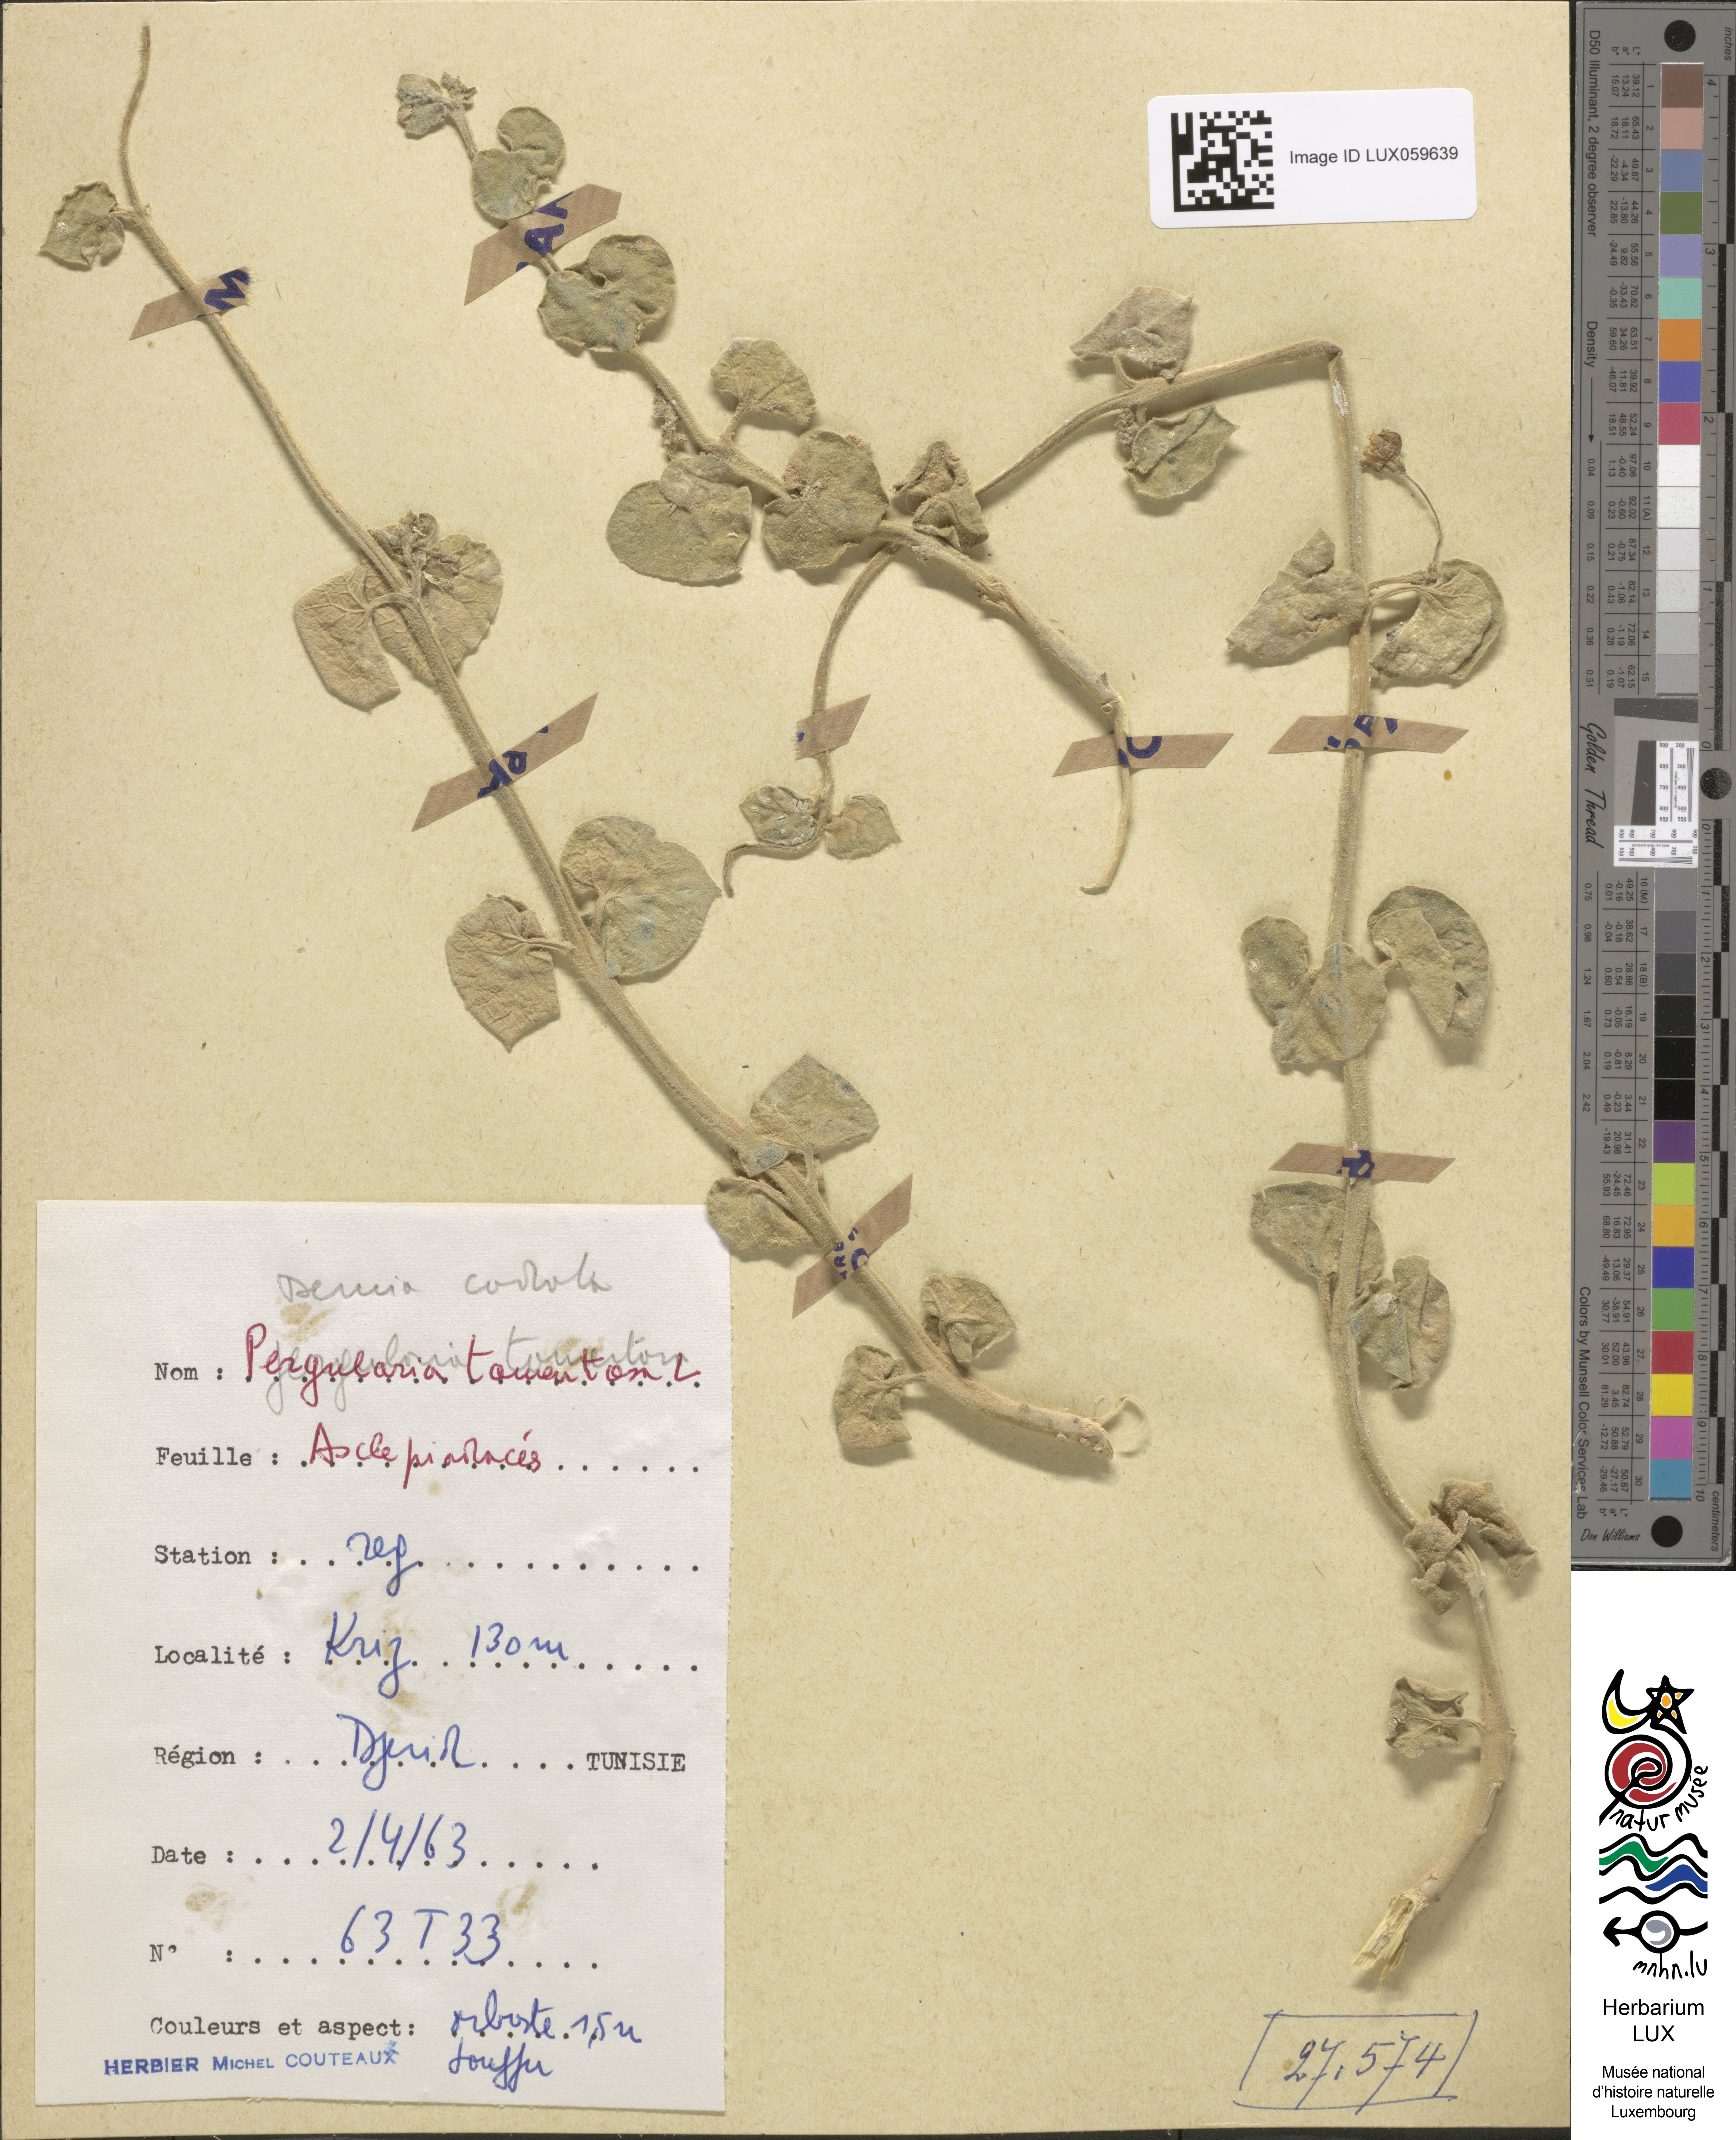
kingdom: Plantae
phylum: Tracheophyta
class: Magnoliopsida
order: Gentianales
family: Apocynaceae
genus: Pergularia
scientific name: Pergularia tomentosa
